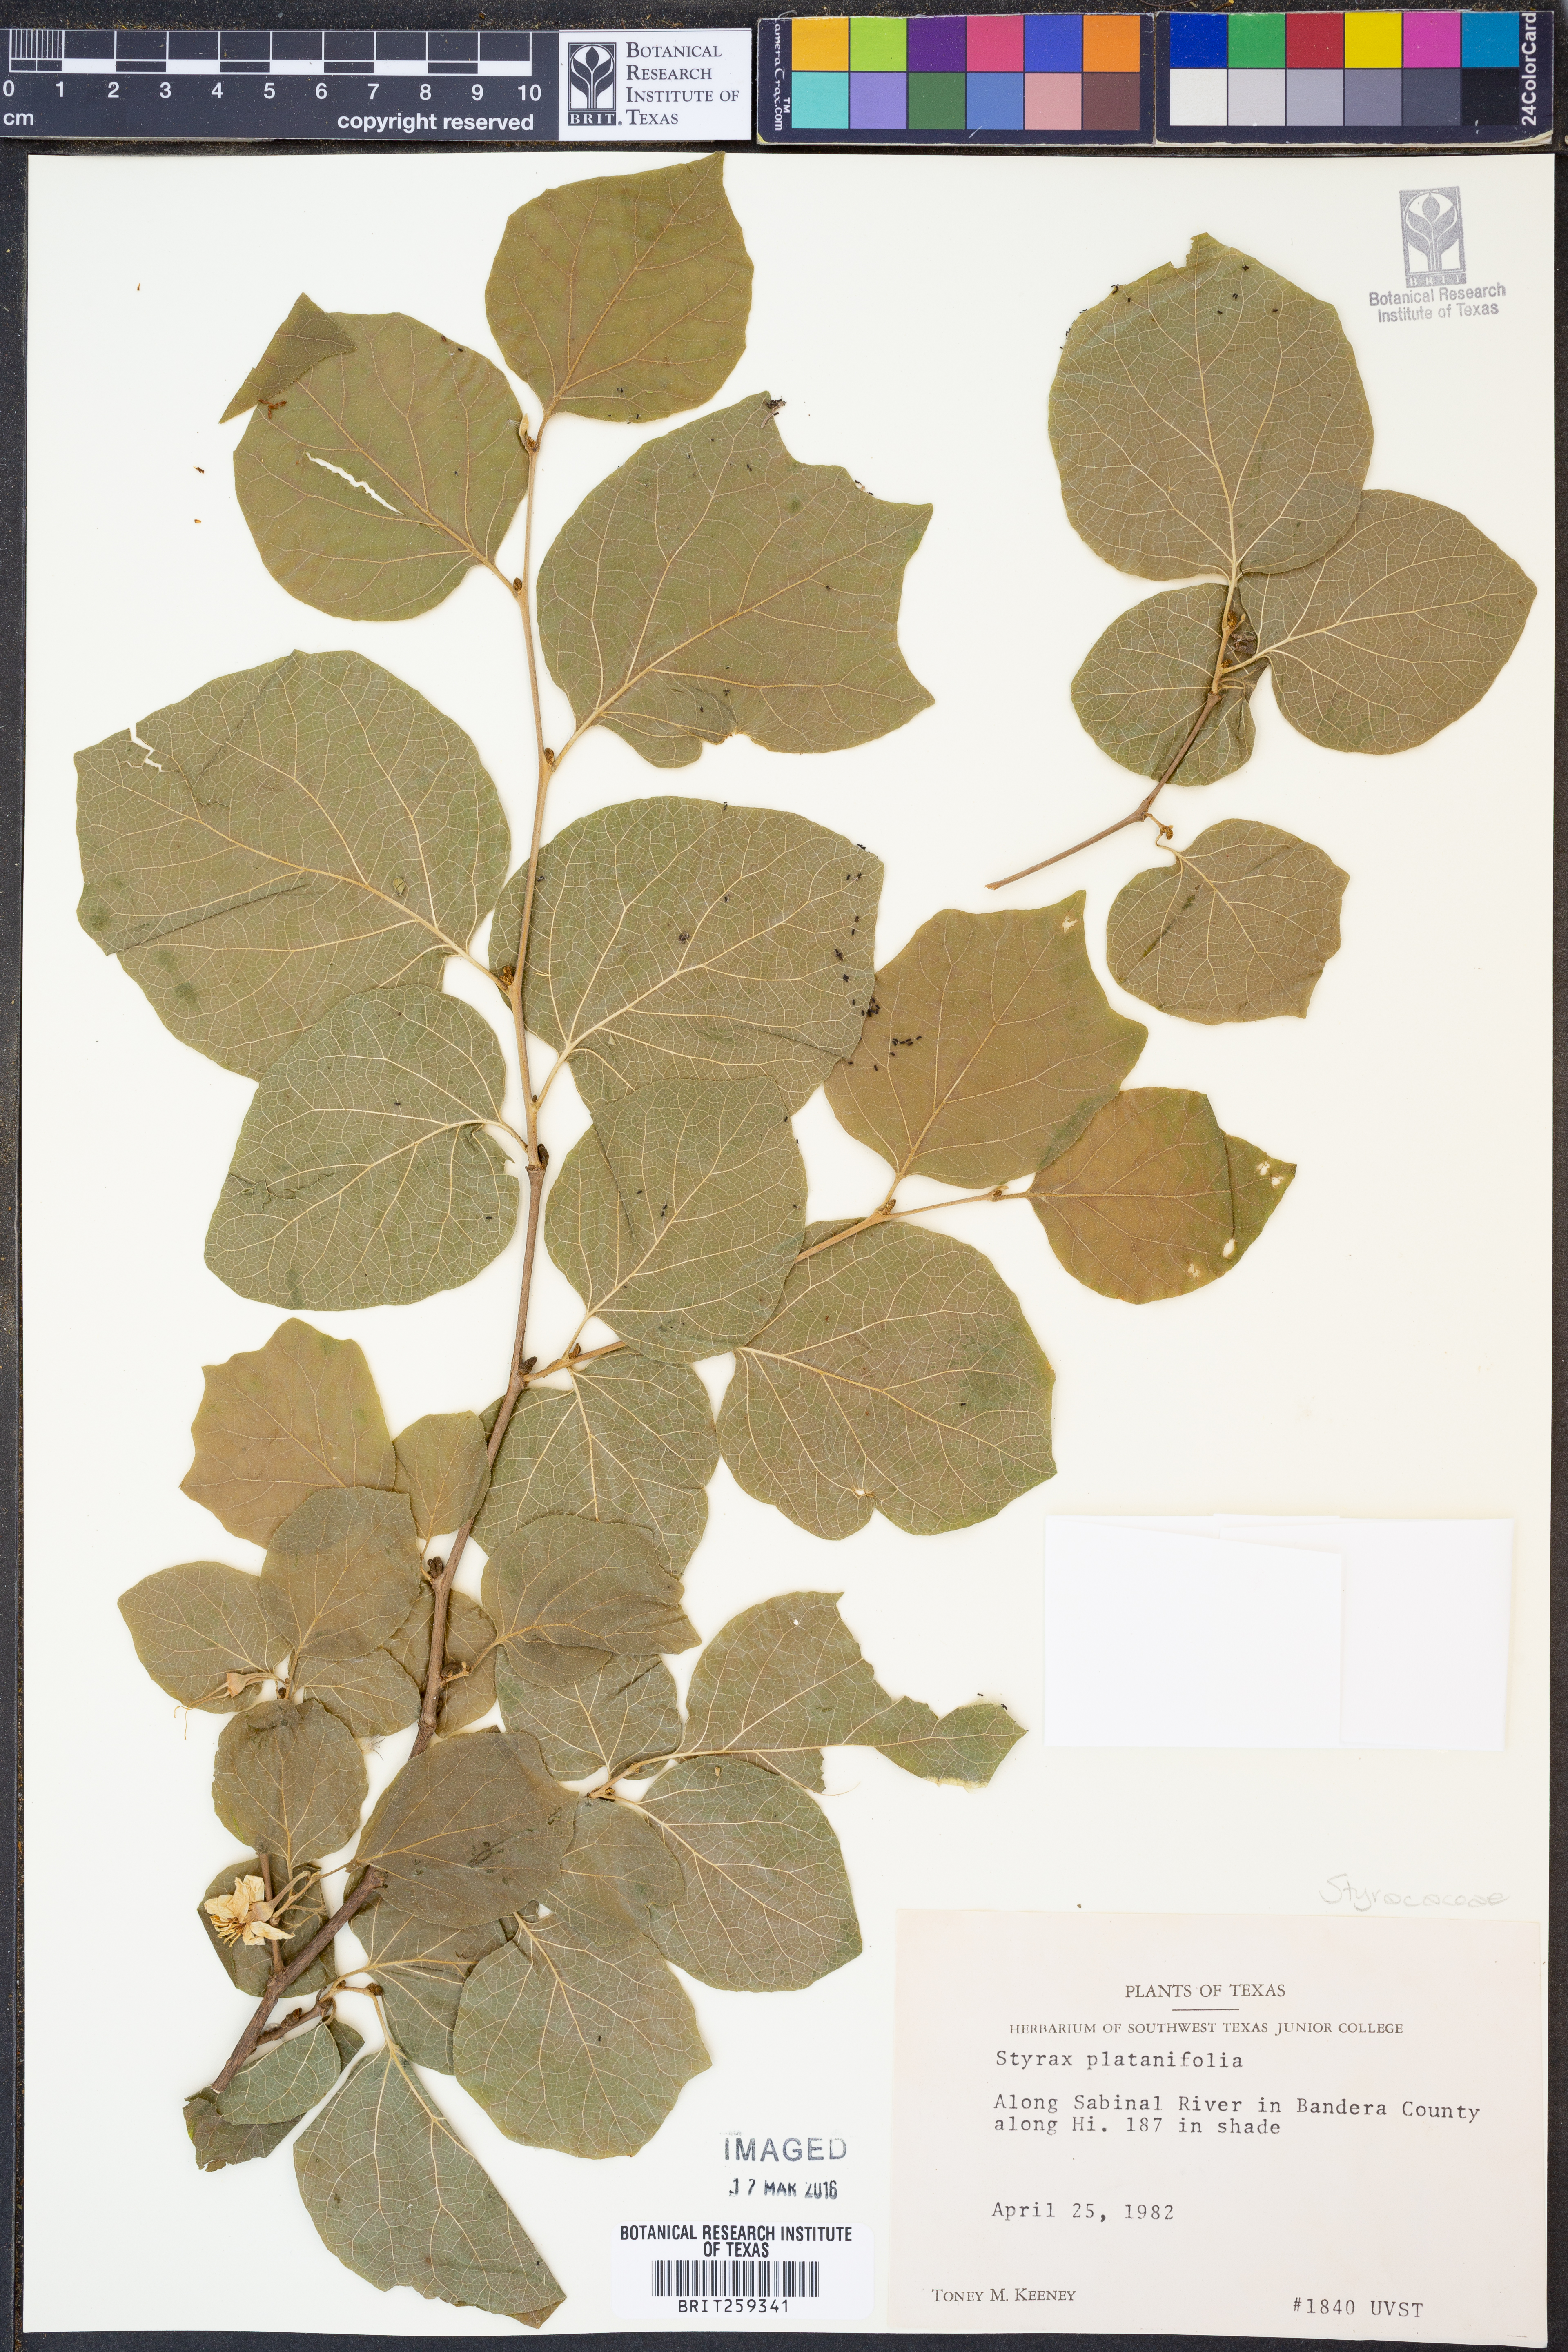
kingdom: Plantae
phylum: Tracheophyta
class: Magnoliopsida
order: Ericales
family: Styracaceae
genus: Styrax
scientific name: Styrax platanifolius
